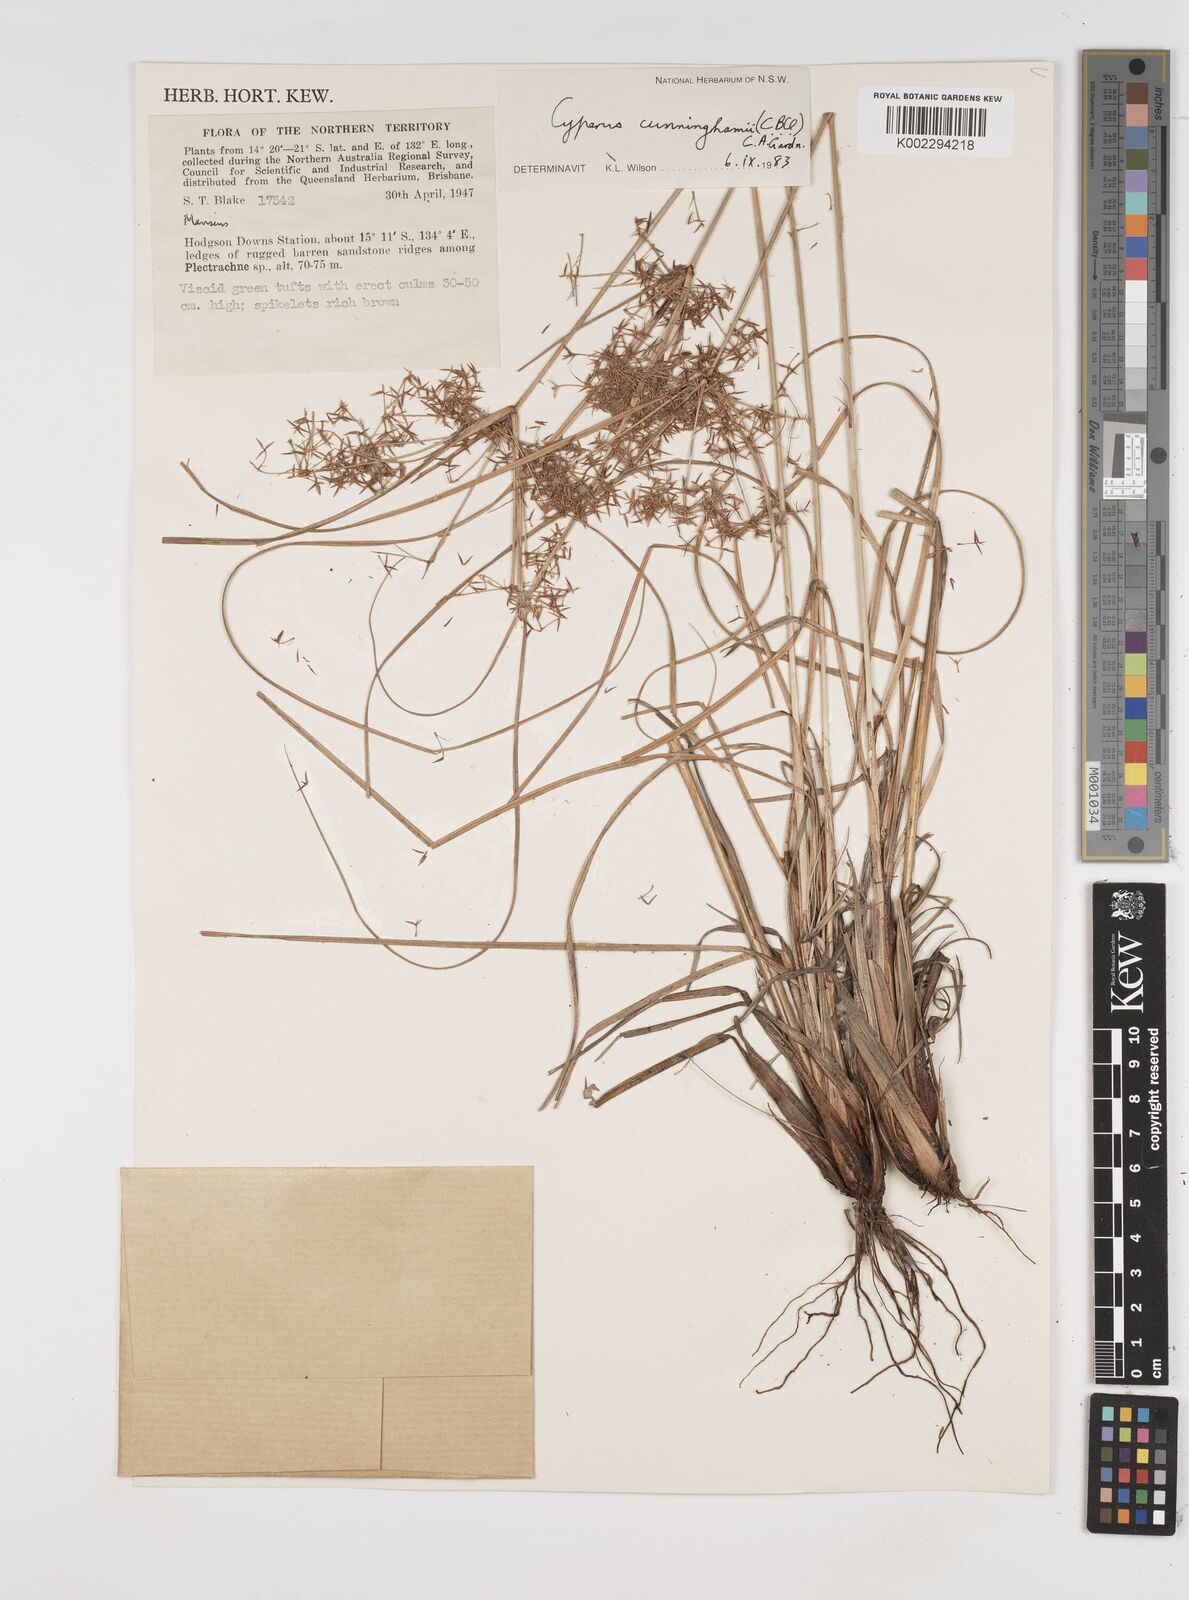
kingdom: Plantae
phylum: Tracheophyta
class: Liliopsida
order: Poales
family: Cyperaceae
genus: Cyperus
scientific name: Cyperus cunninghamii
